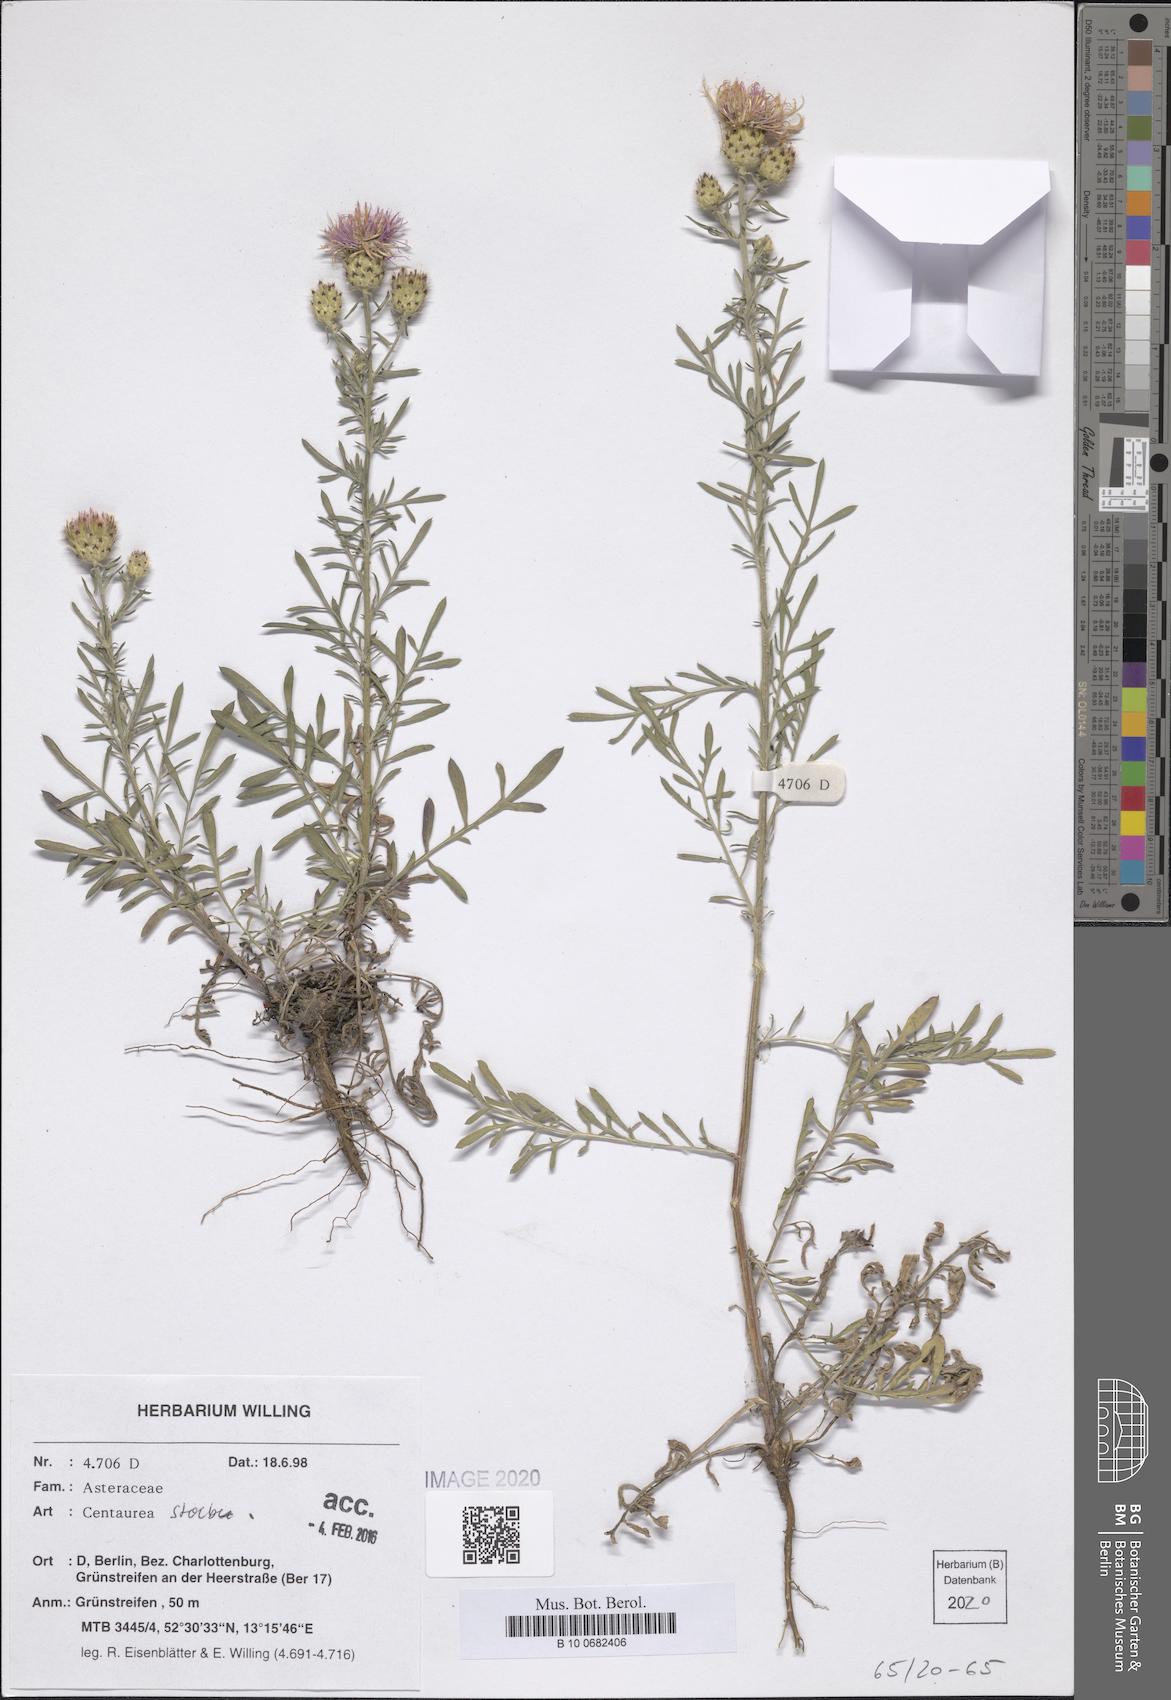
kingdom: Plantae
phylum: Tracheophyta
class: Magnoliopsida
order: Asterales
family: Asteraceae
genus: Centaurea
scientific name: Centaurea stoebe
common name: Spotted knapweed
